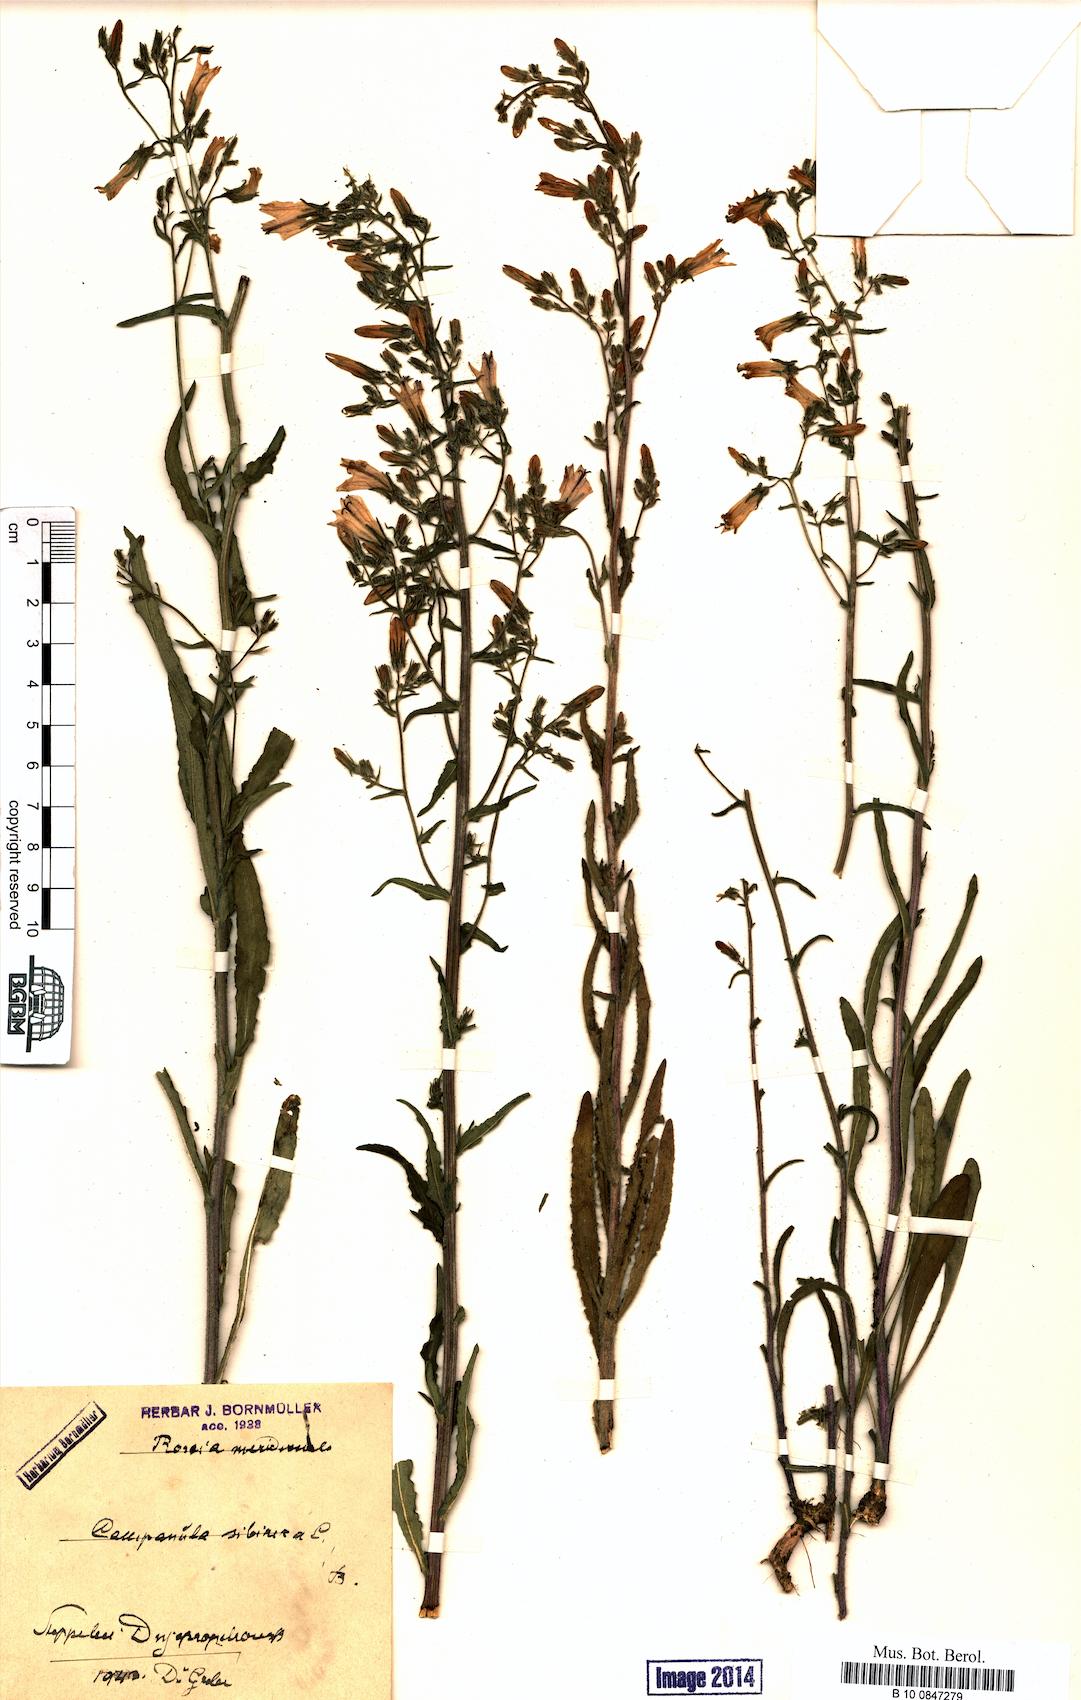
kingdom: Plantae
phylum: Tracheophyta
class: Magnoliopsida
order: Asterales
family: Campanulaceae
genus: Campanula
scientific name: Campanula sibirica
